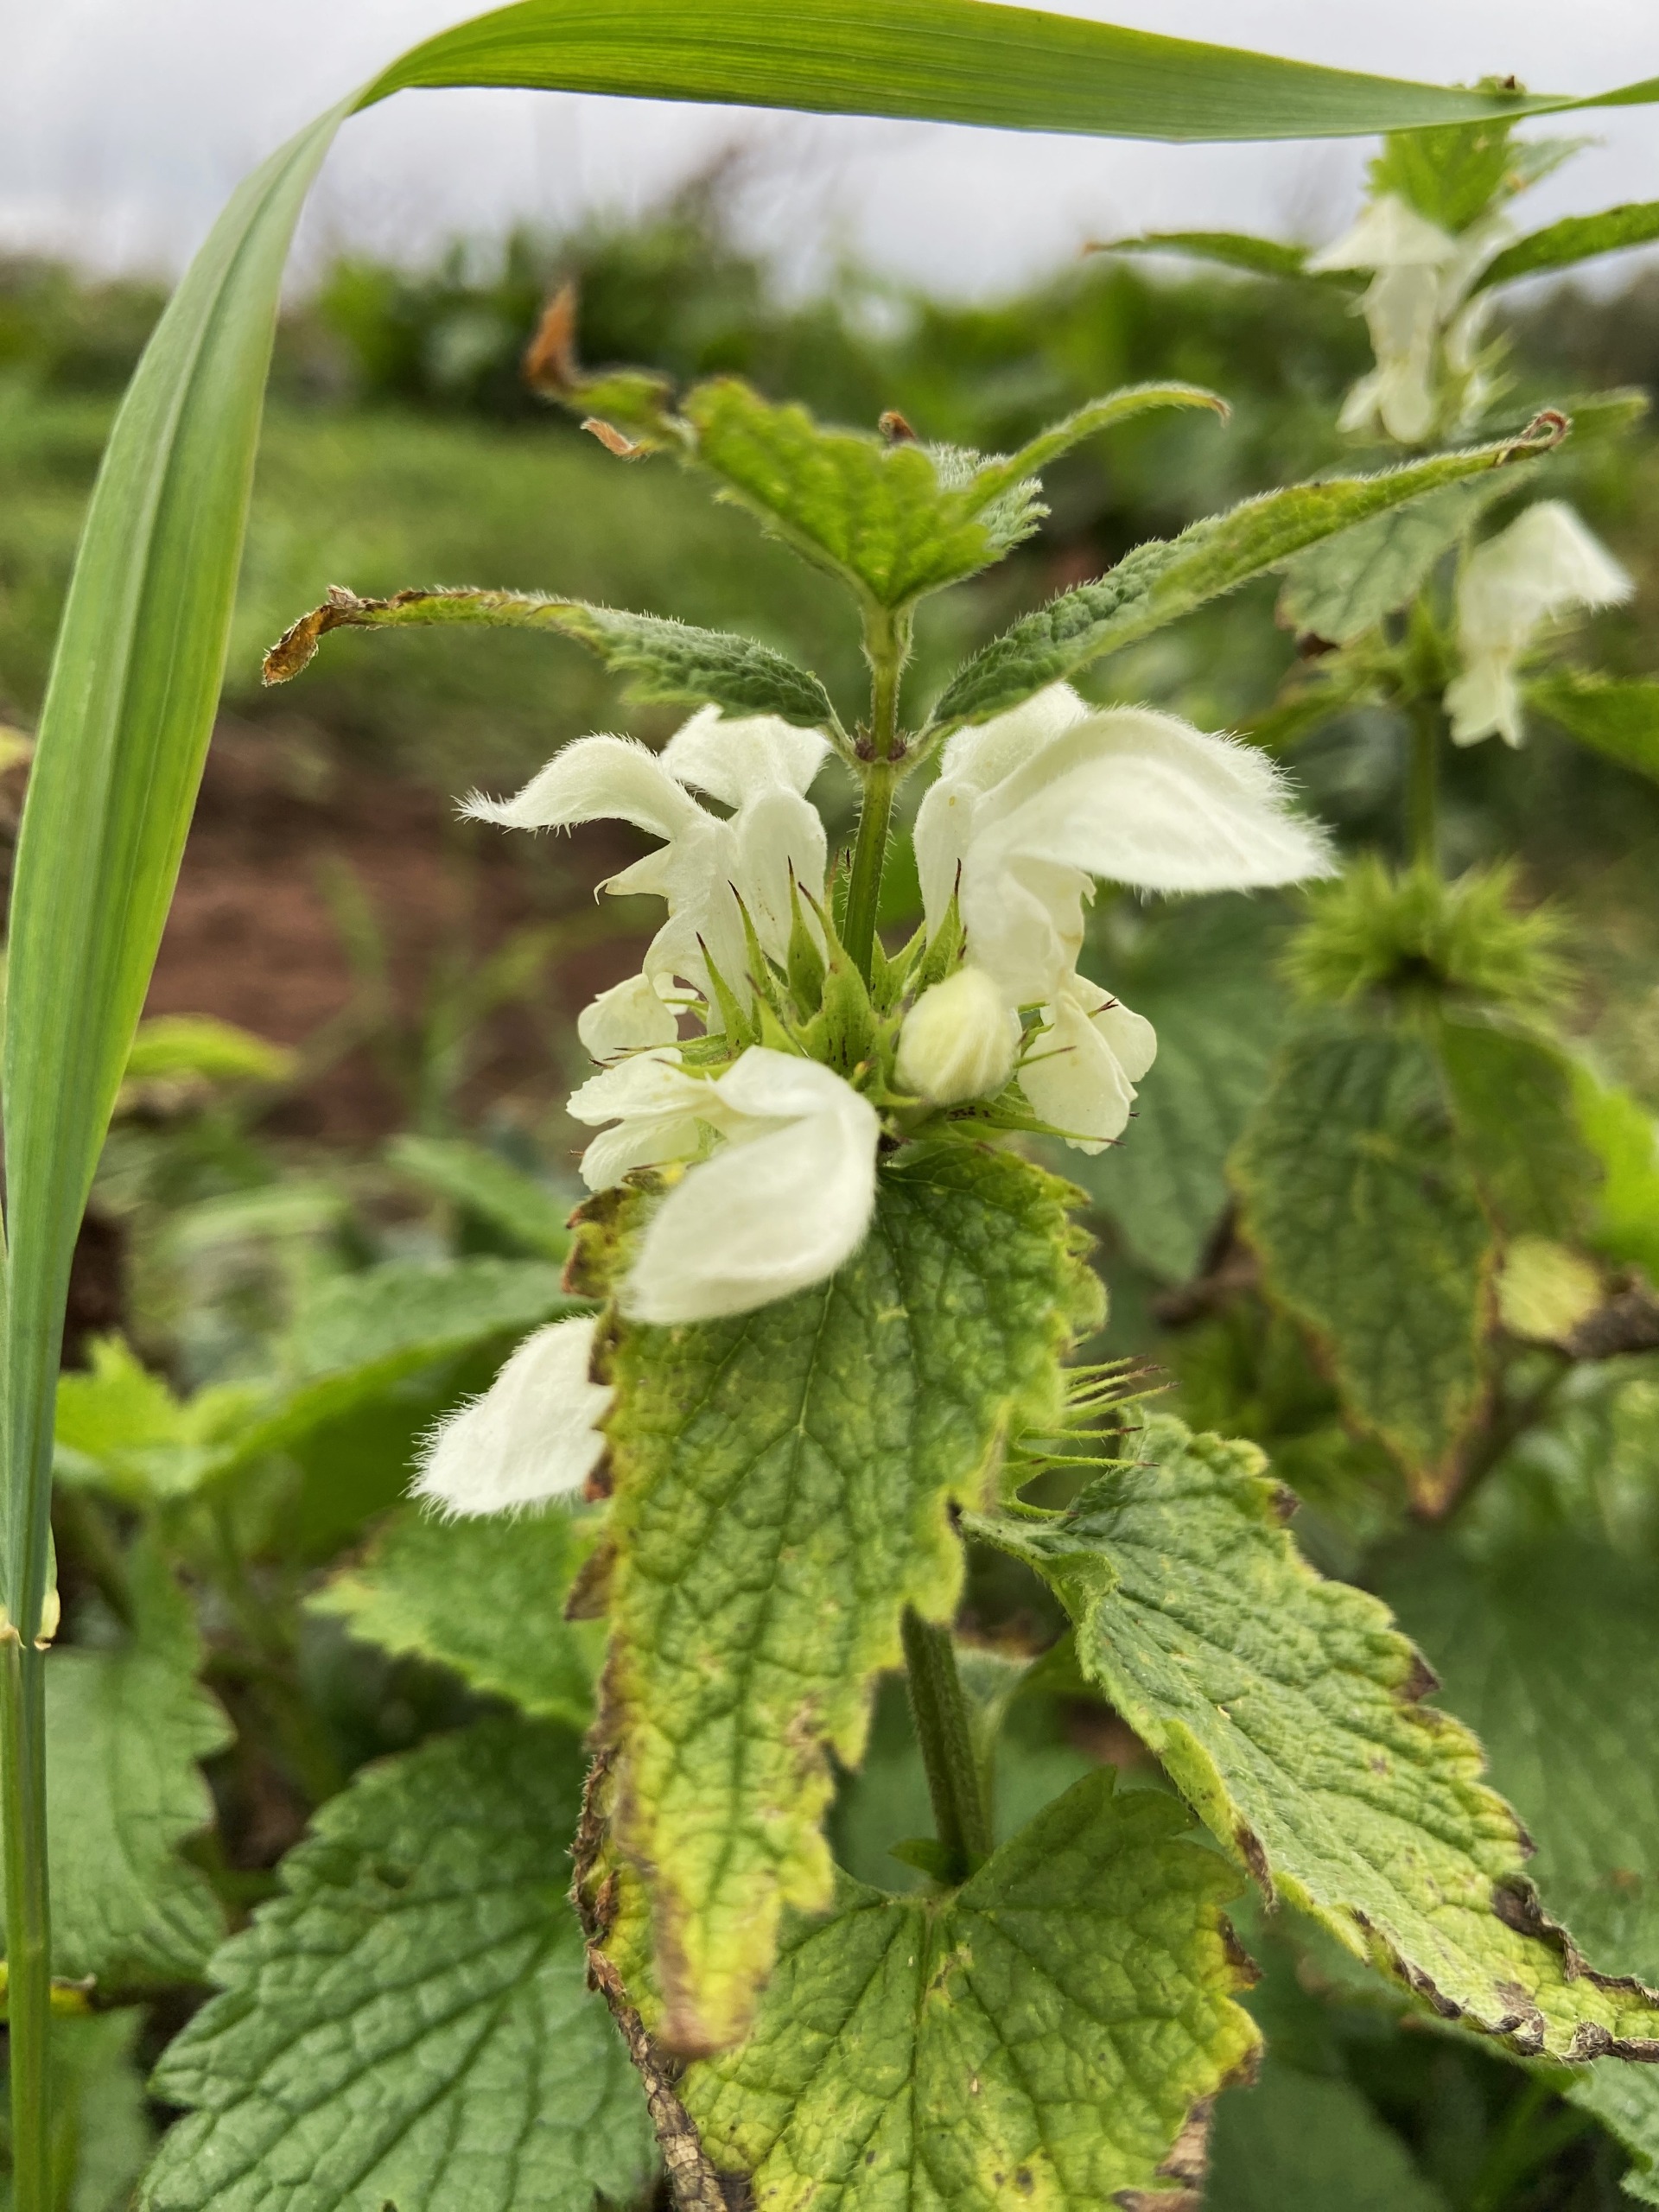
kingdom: Plantae
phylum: Tracheophyta
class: Magnoliopsida
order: Lamiales
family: Lamiaceae
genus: Lamium
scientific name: Lamium album
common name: Døvnælde
